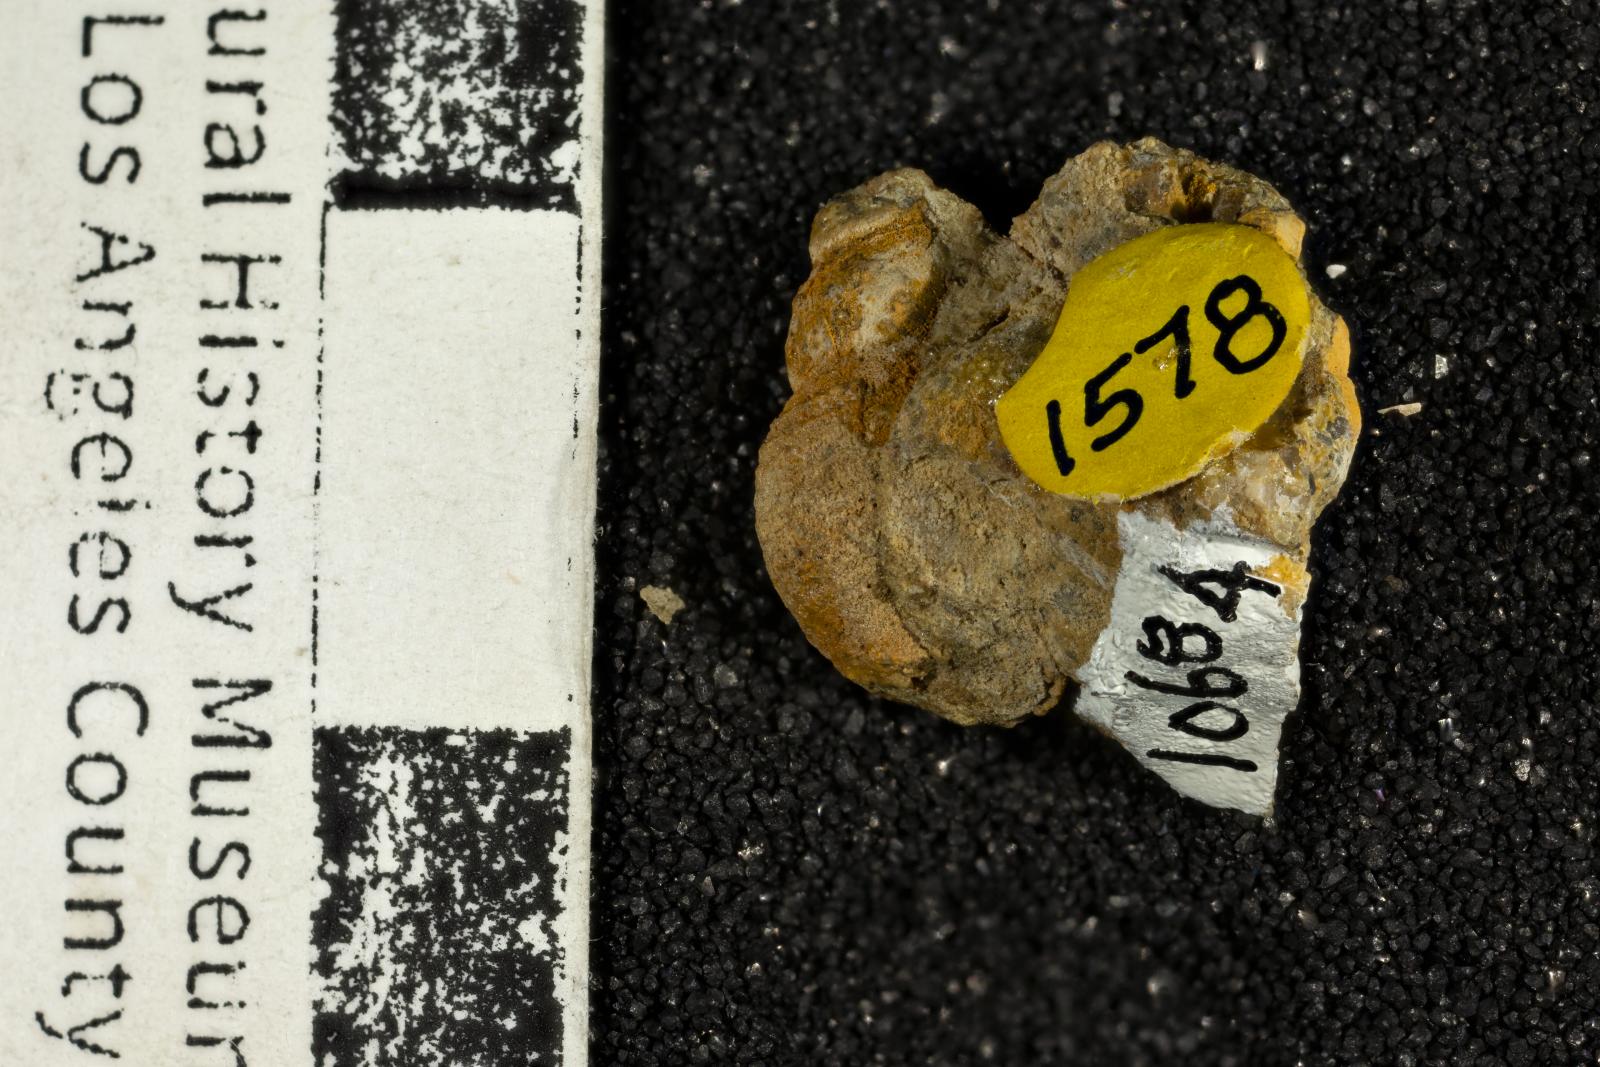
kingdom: Animalia
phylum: Mollusca
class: Gastropoda
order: Neogastropoda
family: Cancellariidae
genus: Mataxa
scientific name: Mataxa arida
